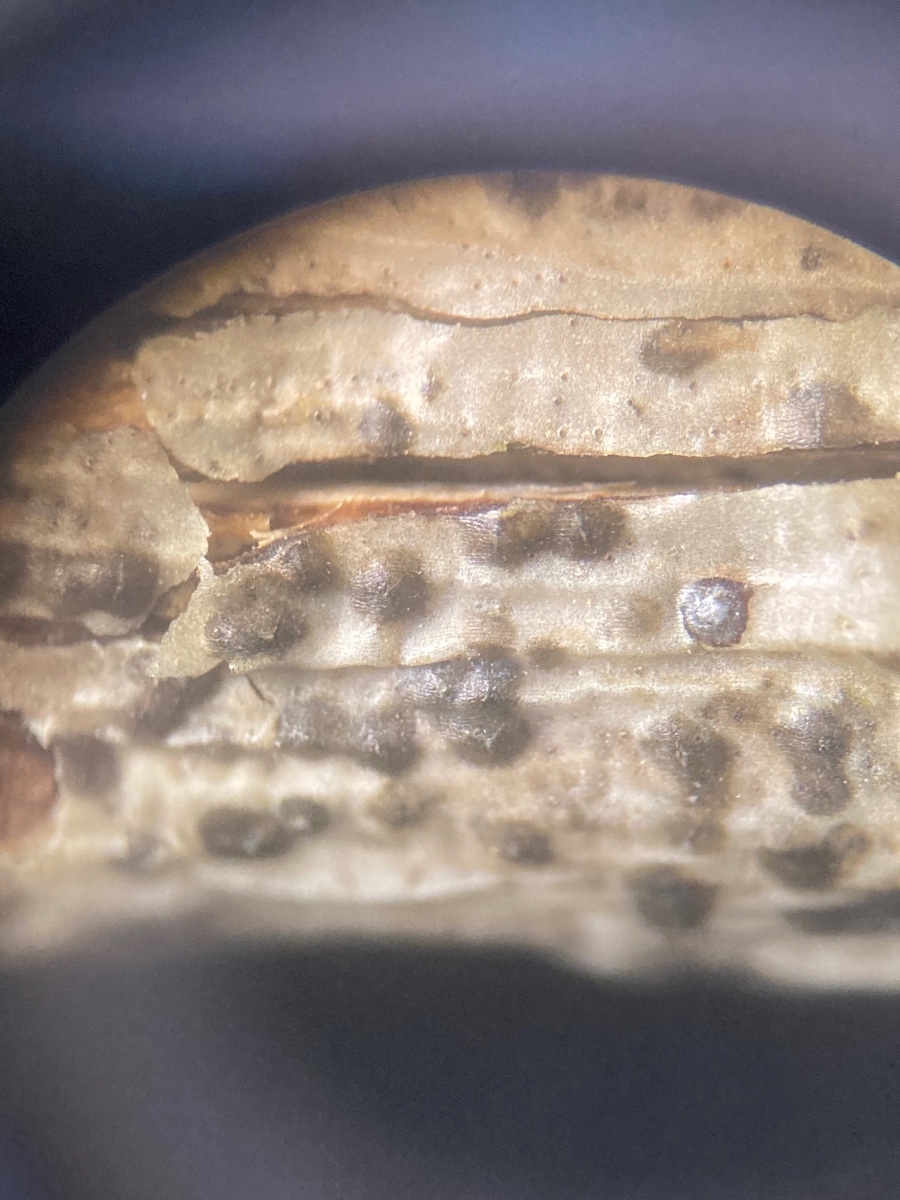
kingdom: Fungi
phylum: Ascomycota
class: Sordariomycetes
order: Amphisphaeriales
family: Sporocadaceae
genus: Discostroma
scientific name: Discostroma corticola
